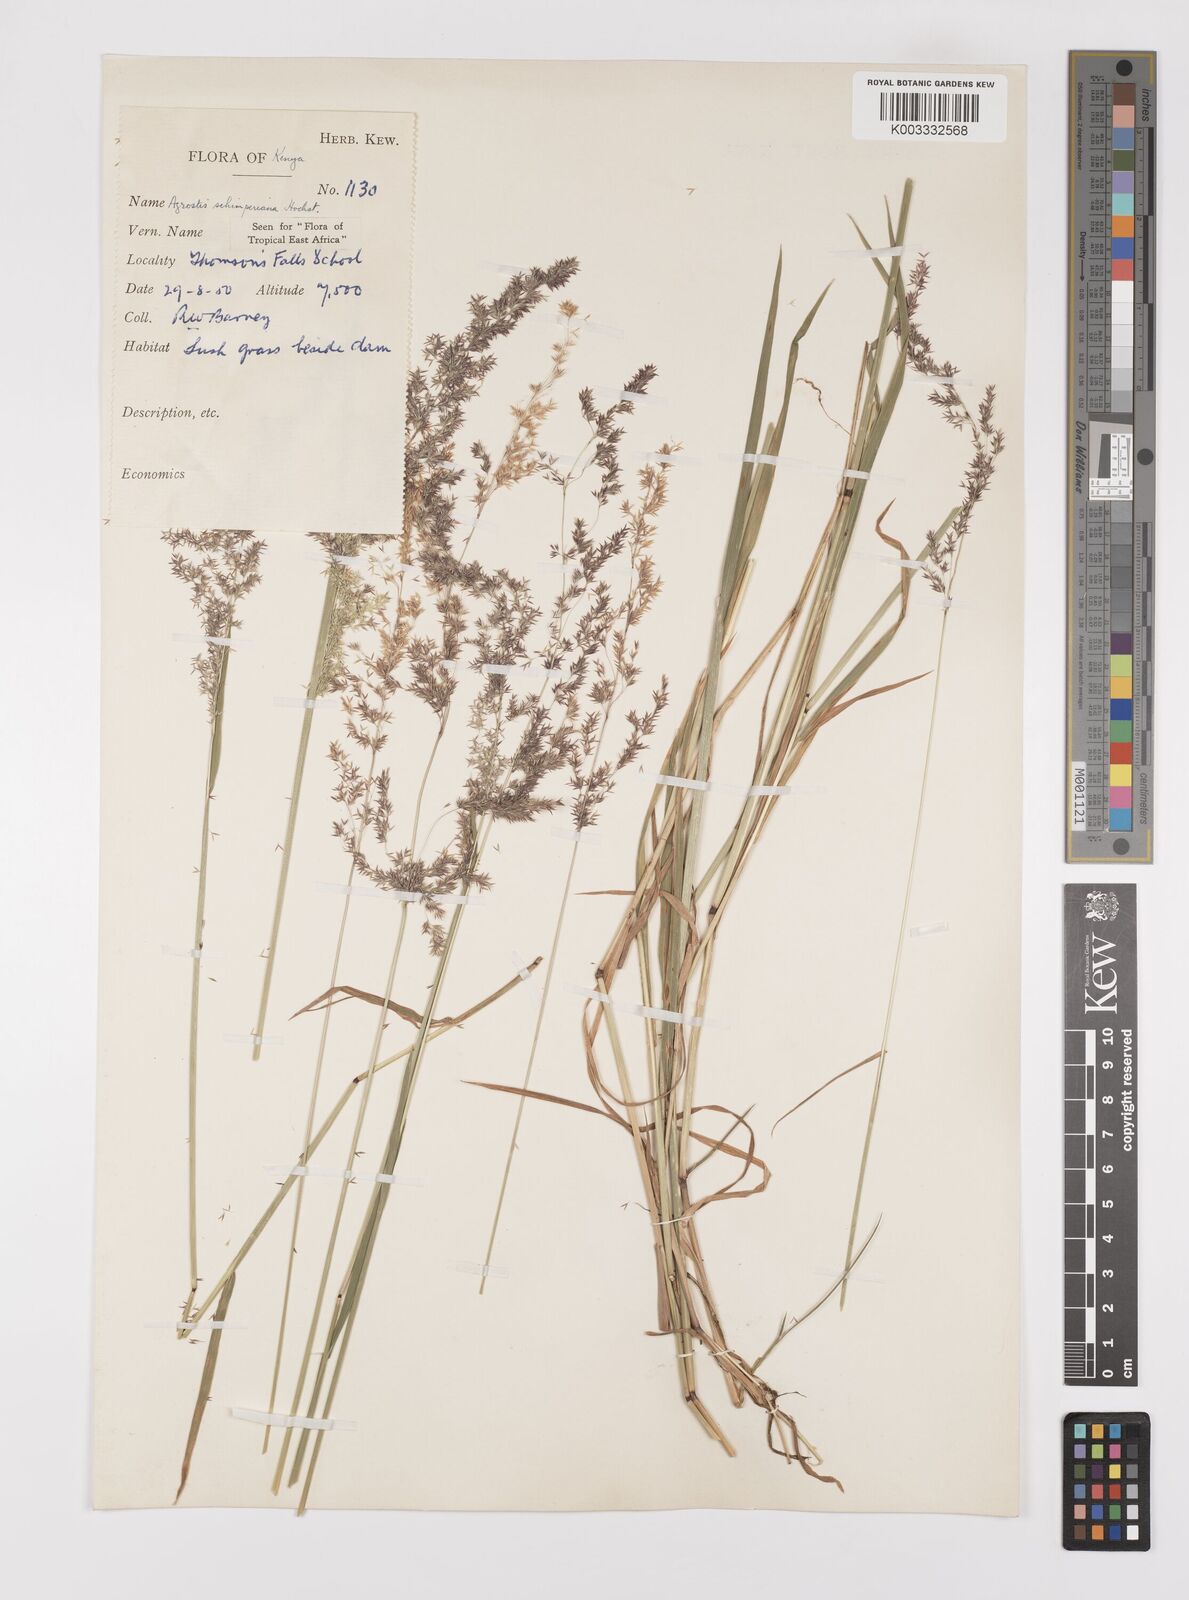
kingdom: Plantae
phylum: Tracheophyta
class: Liliopsida
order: Poales
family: Poaceae
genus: Polypogon
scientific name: Polypogon schimperianus
